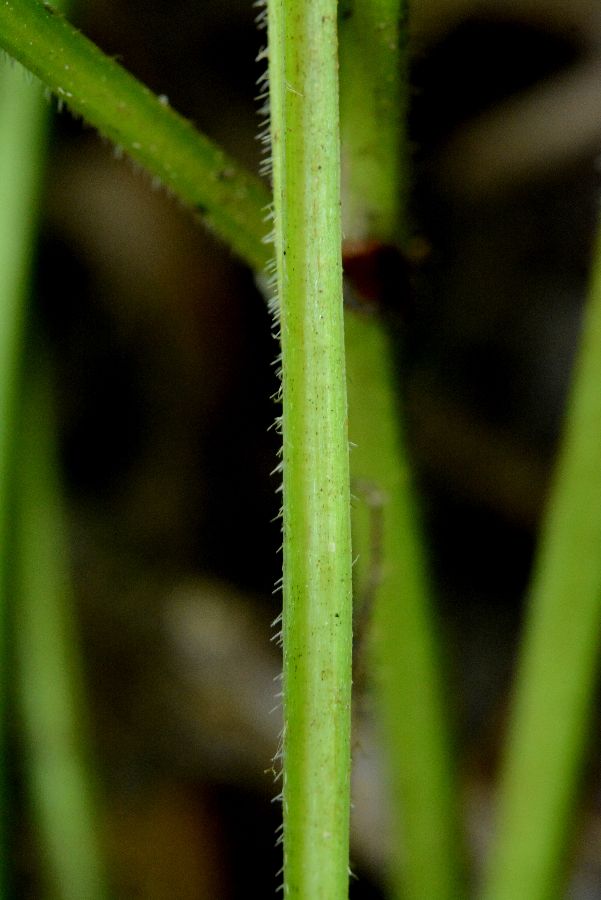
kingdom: Plantae
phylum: Tracheophyta
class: Magnoliopsida
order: Malpighiales
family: Violaceae
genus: Viola
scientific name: Viola mirabilis
